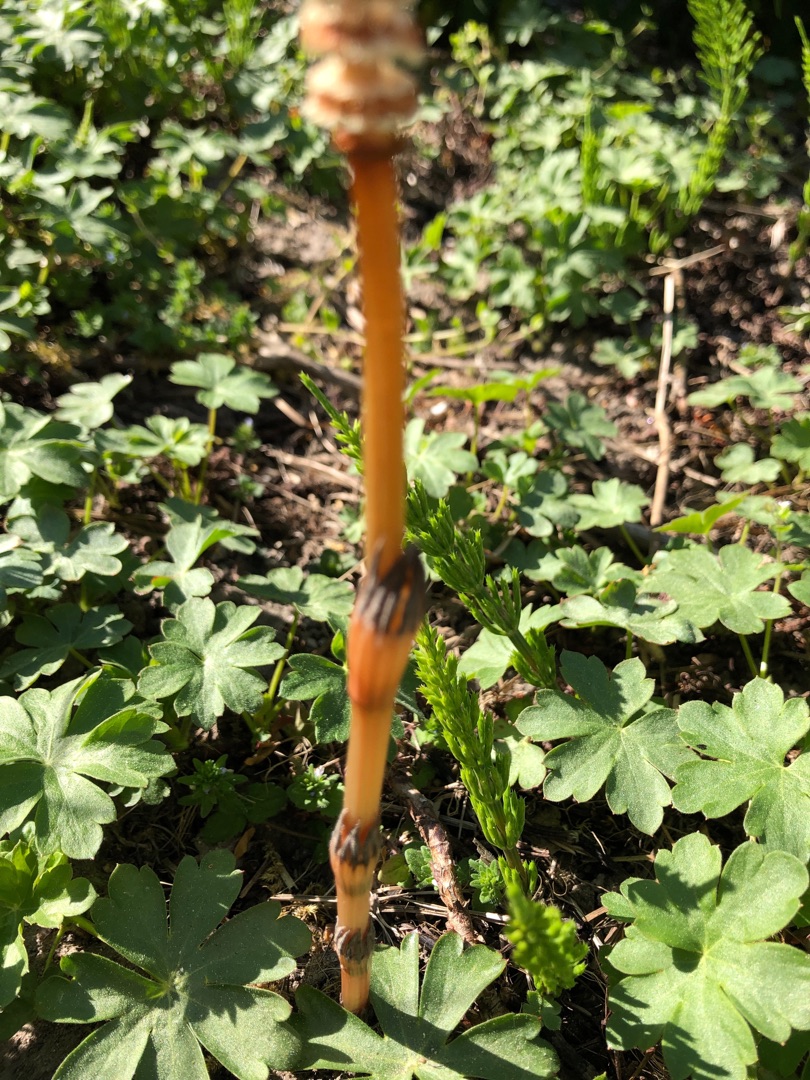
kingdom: Plantae
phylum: Tracheophyta
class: Polypodiopsida
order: Equisetales
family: Equisetaceae
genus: Equisetum
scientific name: Equisetum arvense
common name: Ager-padderok
